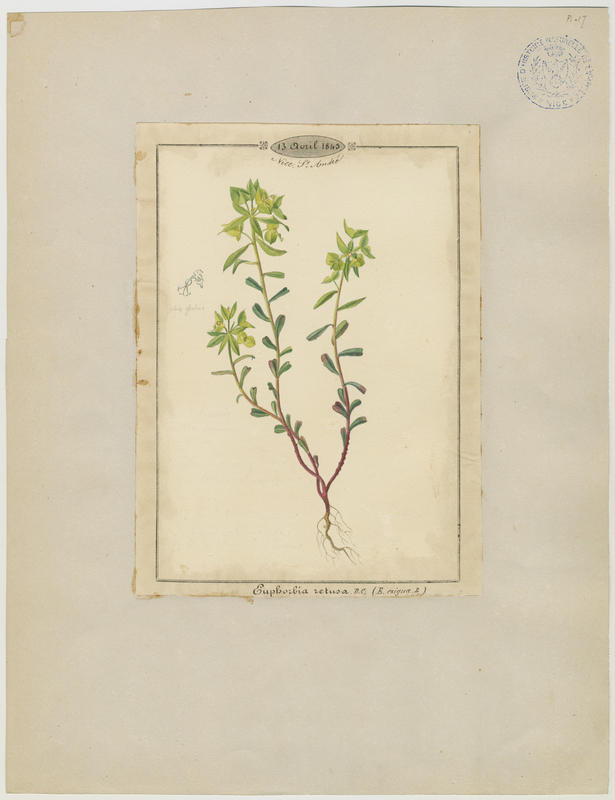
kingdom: Plantae
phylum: Tracheophyta
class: Magnoliopsida
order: Malpighiales
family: Euphorbiaceae
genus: Euphorbia
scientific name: Euphorbia exigua
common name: Dwarf spurge
